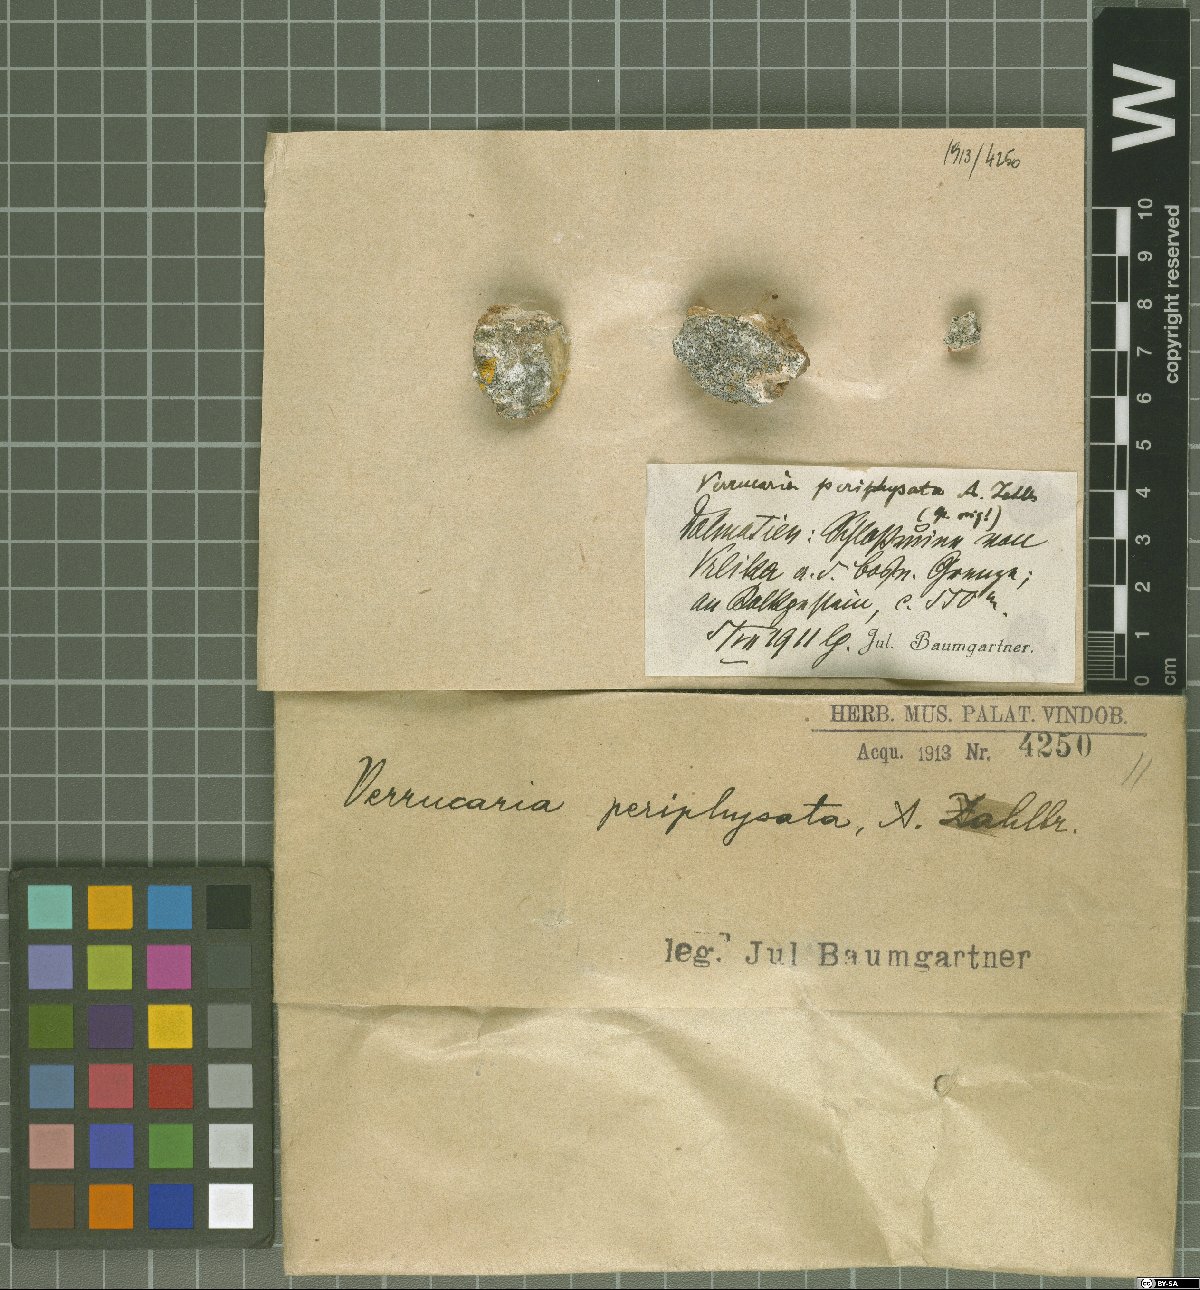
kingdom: Fungi
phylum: Ascomycota
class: Eurotiomycetes
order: Verrucariales
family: Verrucariaceae
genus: Verrucaria
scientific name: Verrucaria periphysata
